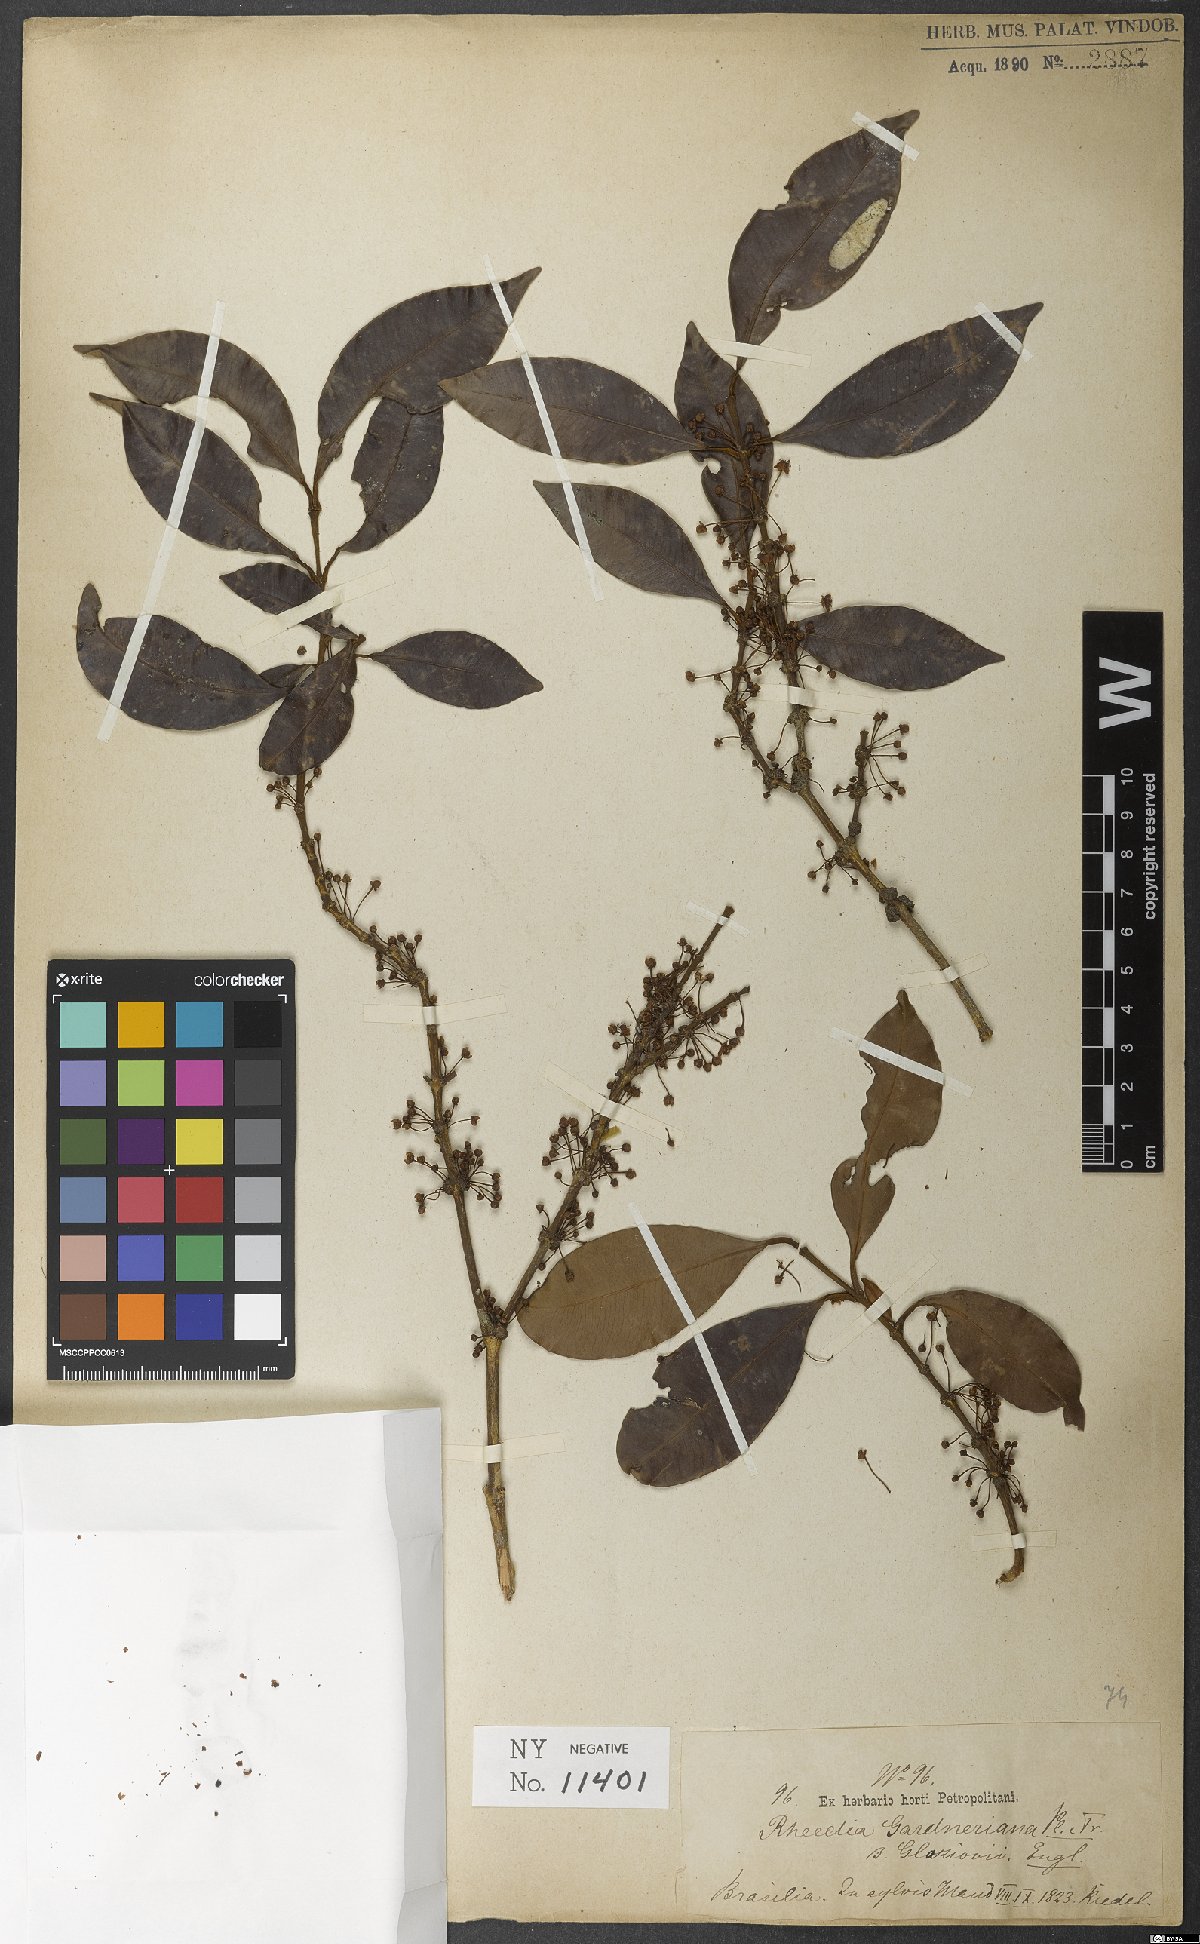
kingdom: Plantae
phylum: Tracheophyta
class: Magnoliopsida
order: Malpighiales
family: Clusiaceae
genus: Garcinia
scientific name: Garcinia gardneriana
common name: Achacha
